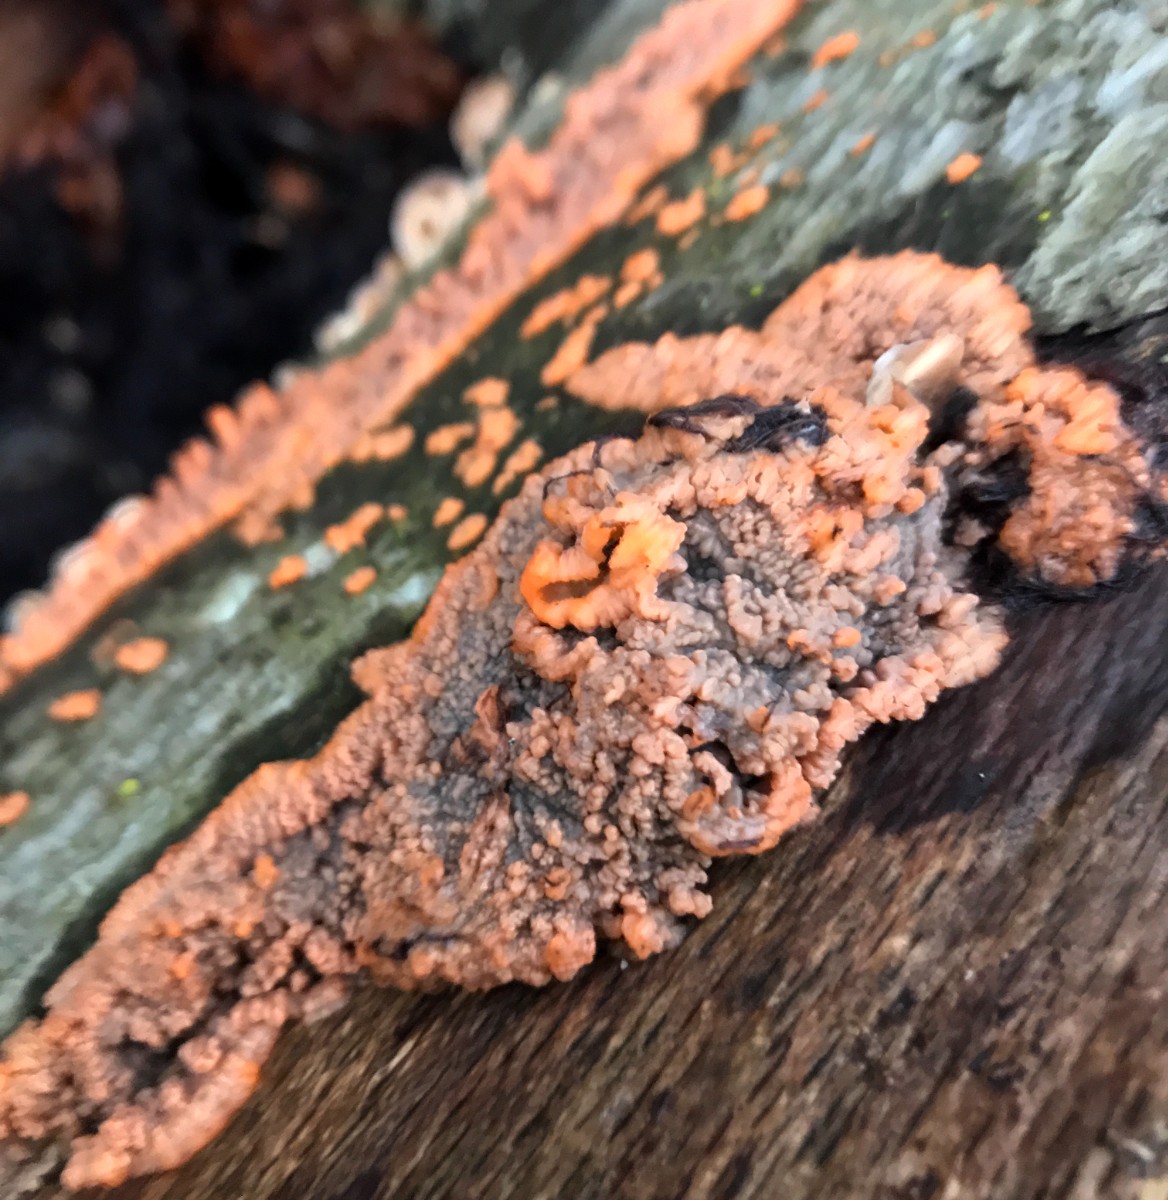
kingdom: Fungi
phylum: Basidiomycota
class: Agaricomycetes
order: Polyporales
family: Meruliaceae
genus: Phlebia
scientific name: Phlebia radiata
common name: stråle-åresvamp
